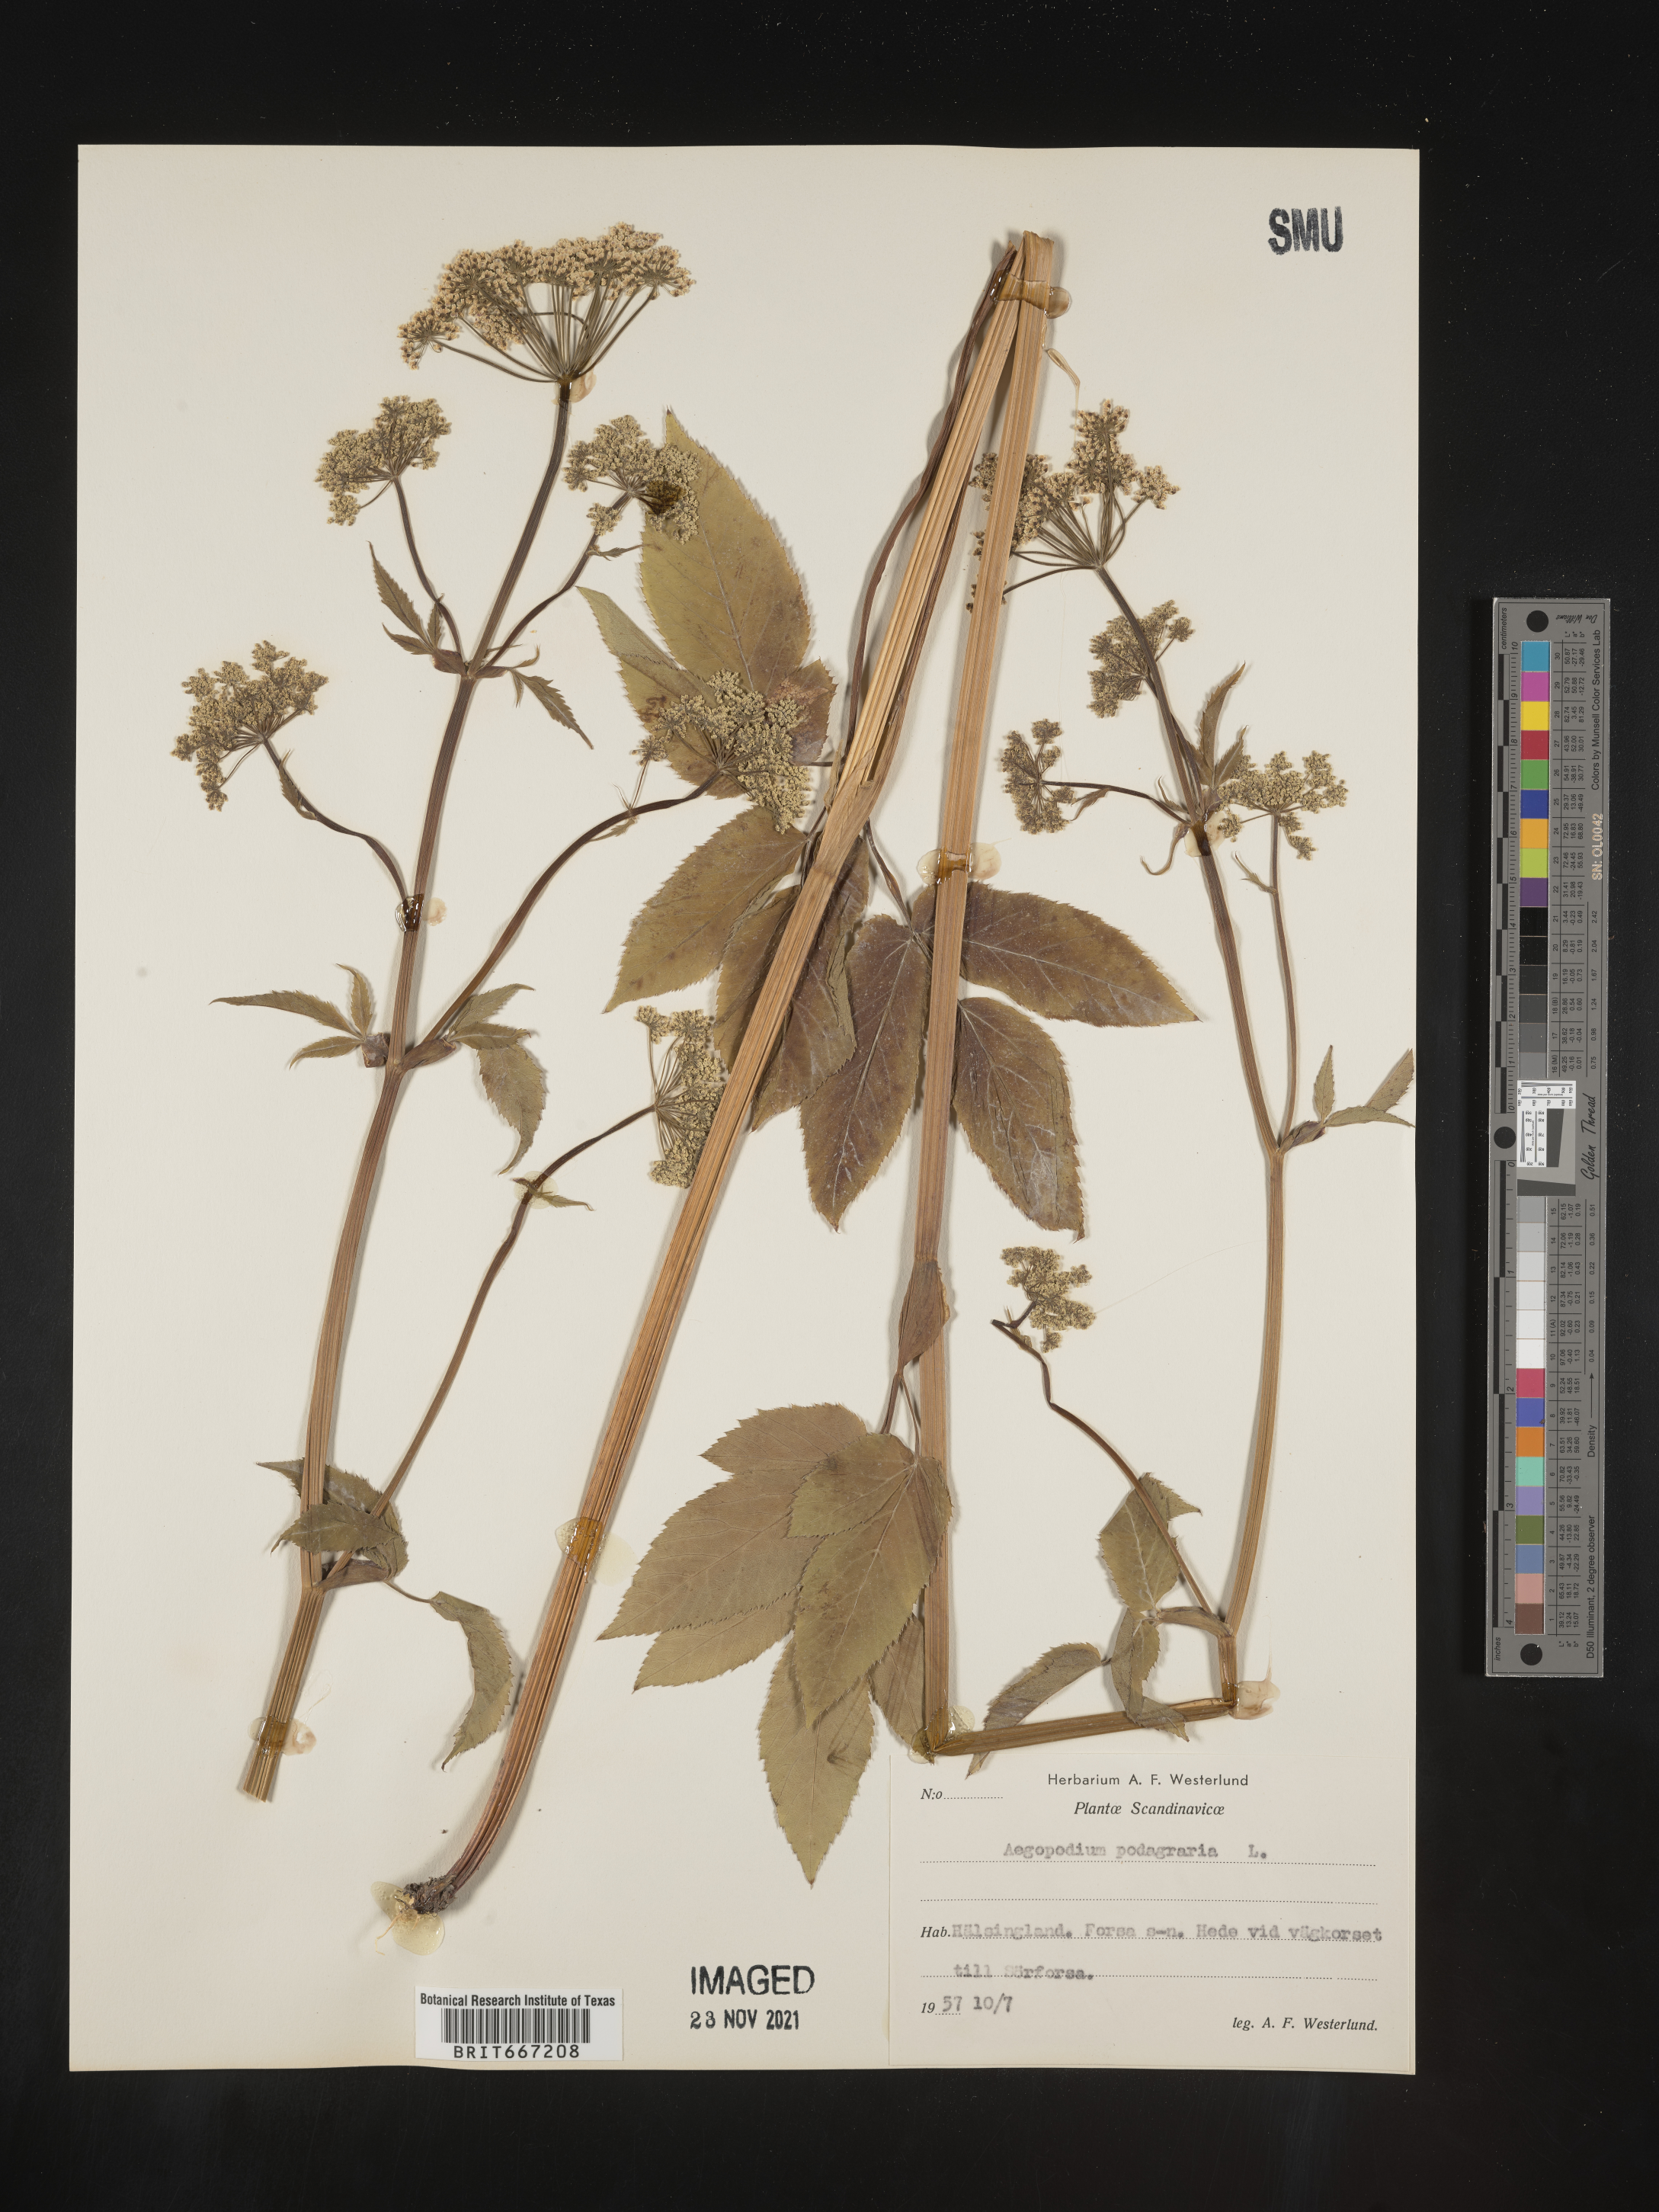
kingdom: Plantae
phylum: Tracheophyta
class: Magnoliopsida
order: Apiales
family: Apiaceae
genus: Aegopodium
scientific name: Aegopodium
